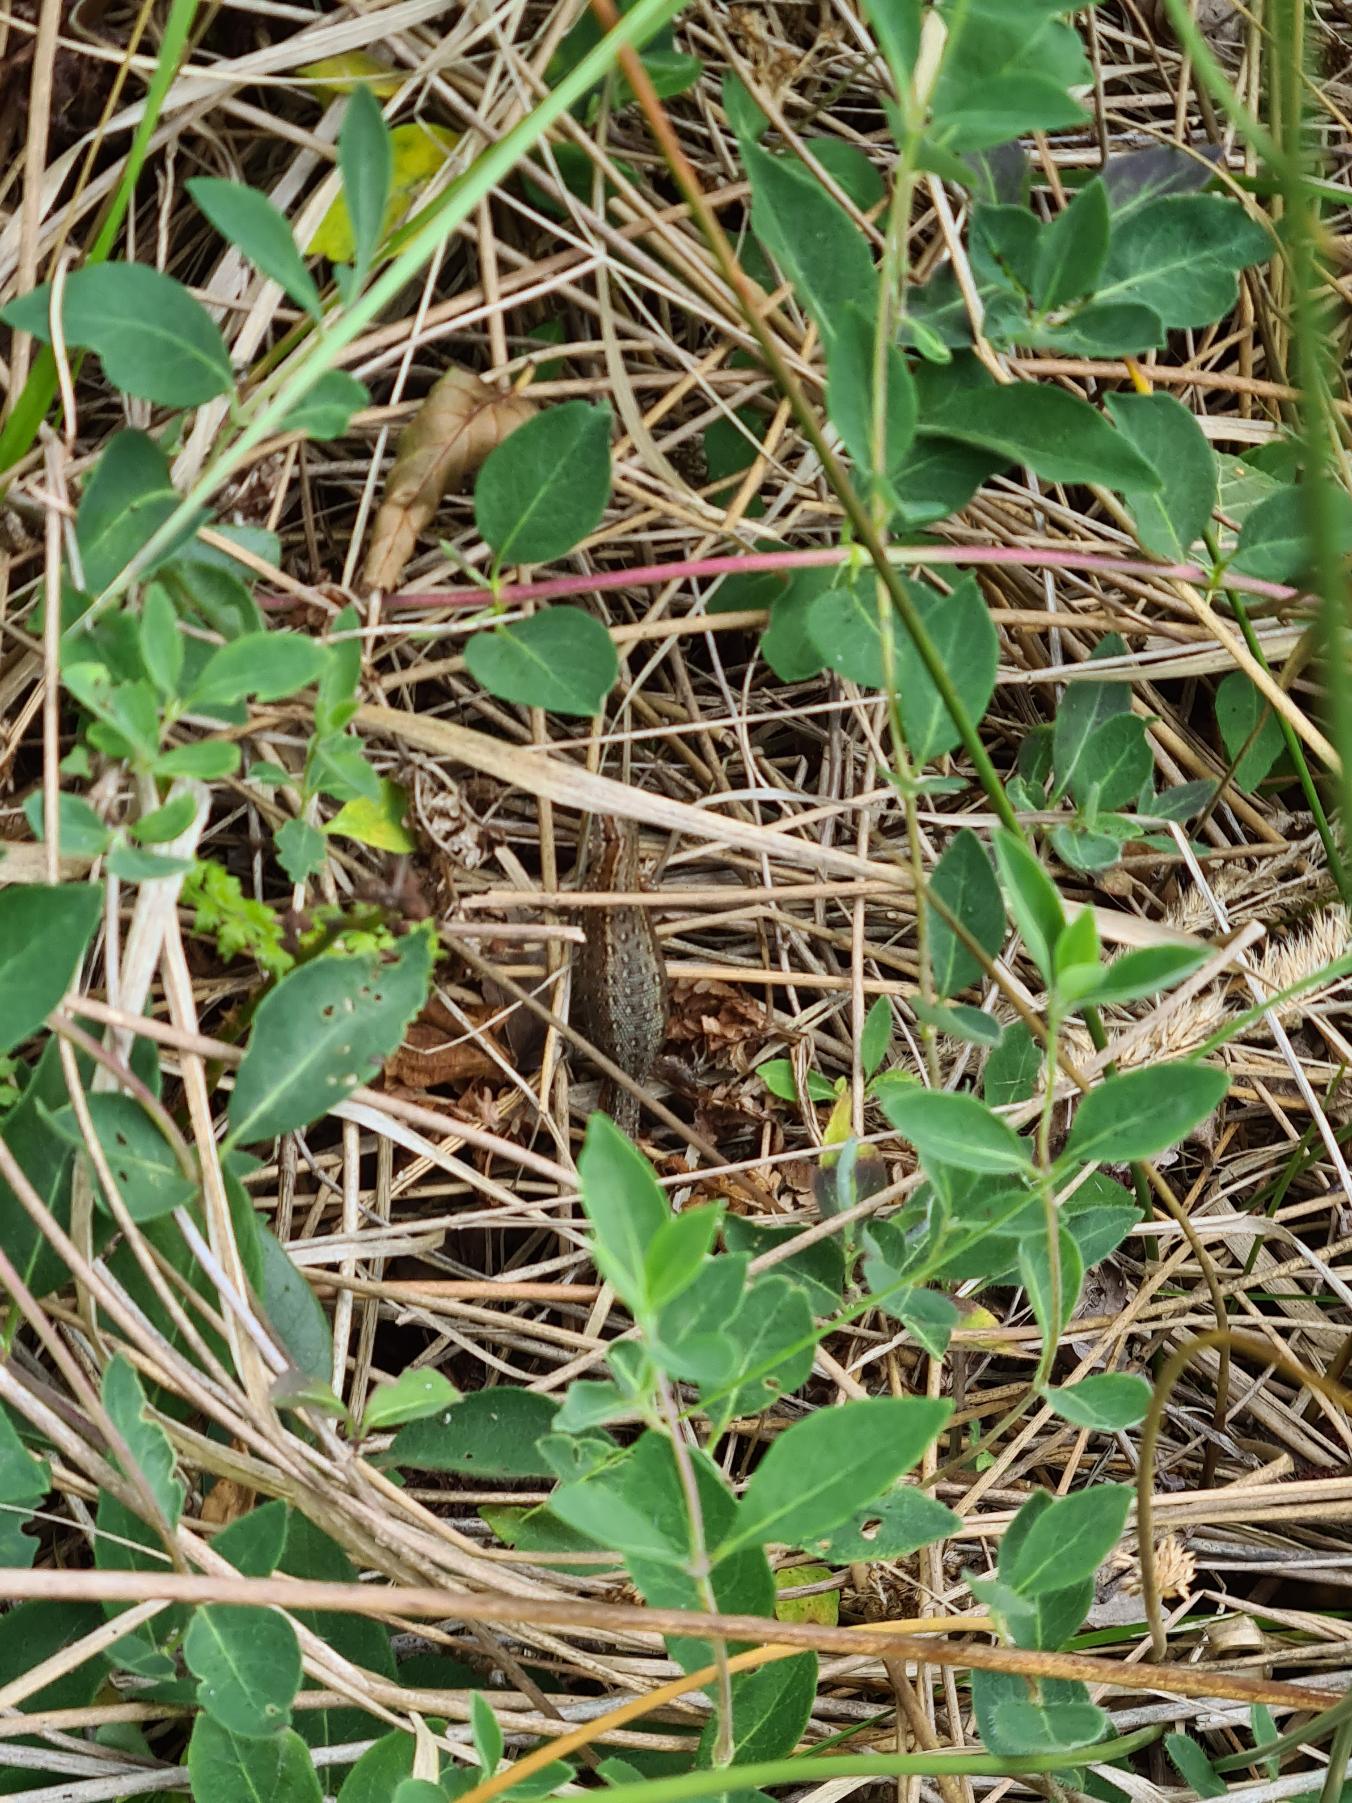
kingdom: Animalia
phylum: Chordata
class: Squamata
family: Lacertidae
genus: Zootoca
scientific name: Zootoca vivipara
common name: Skovfirben
